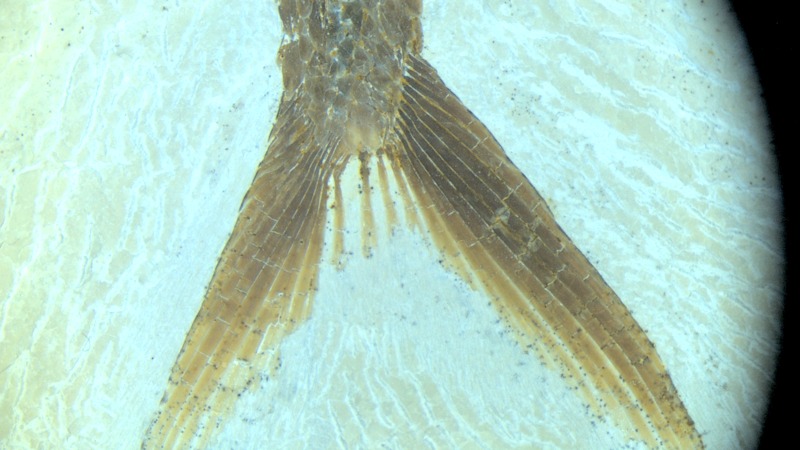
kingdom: Animalia
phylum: Chordata
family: Aspidorhynchidae
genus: Belonostomus
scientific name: Belonostomus kochii
